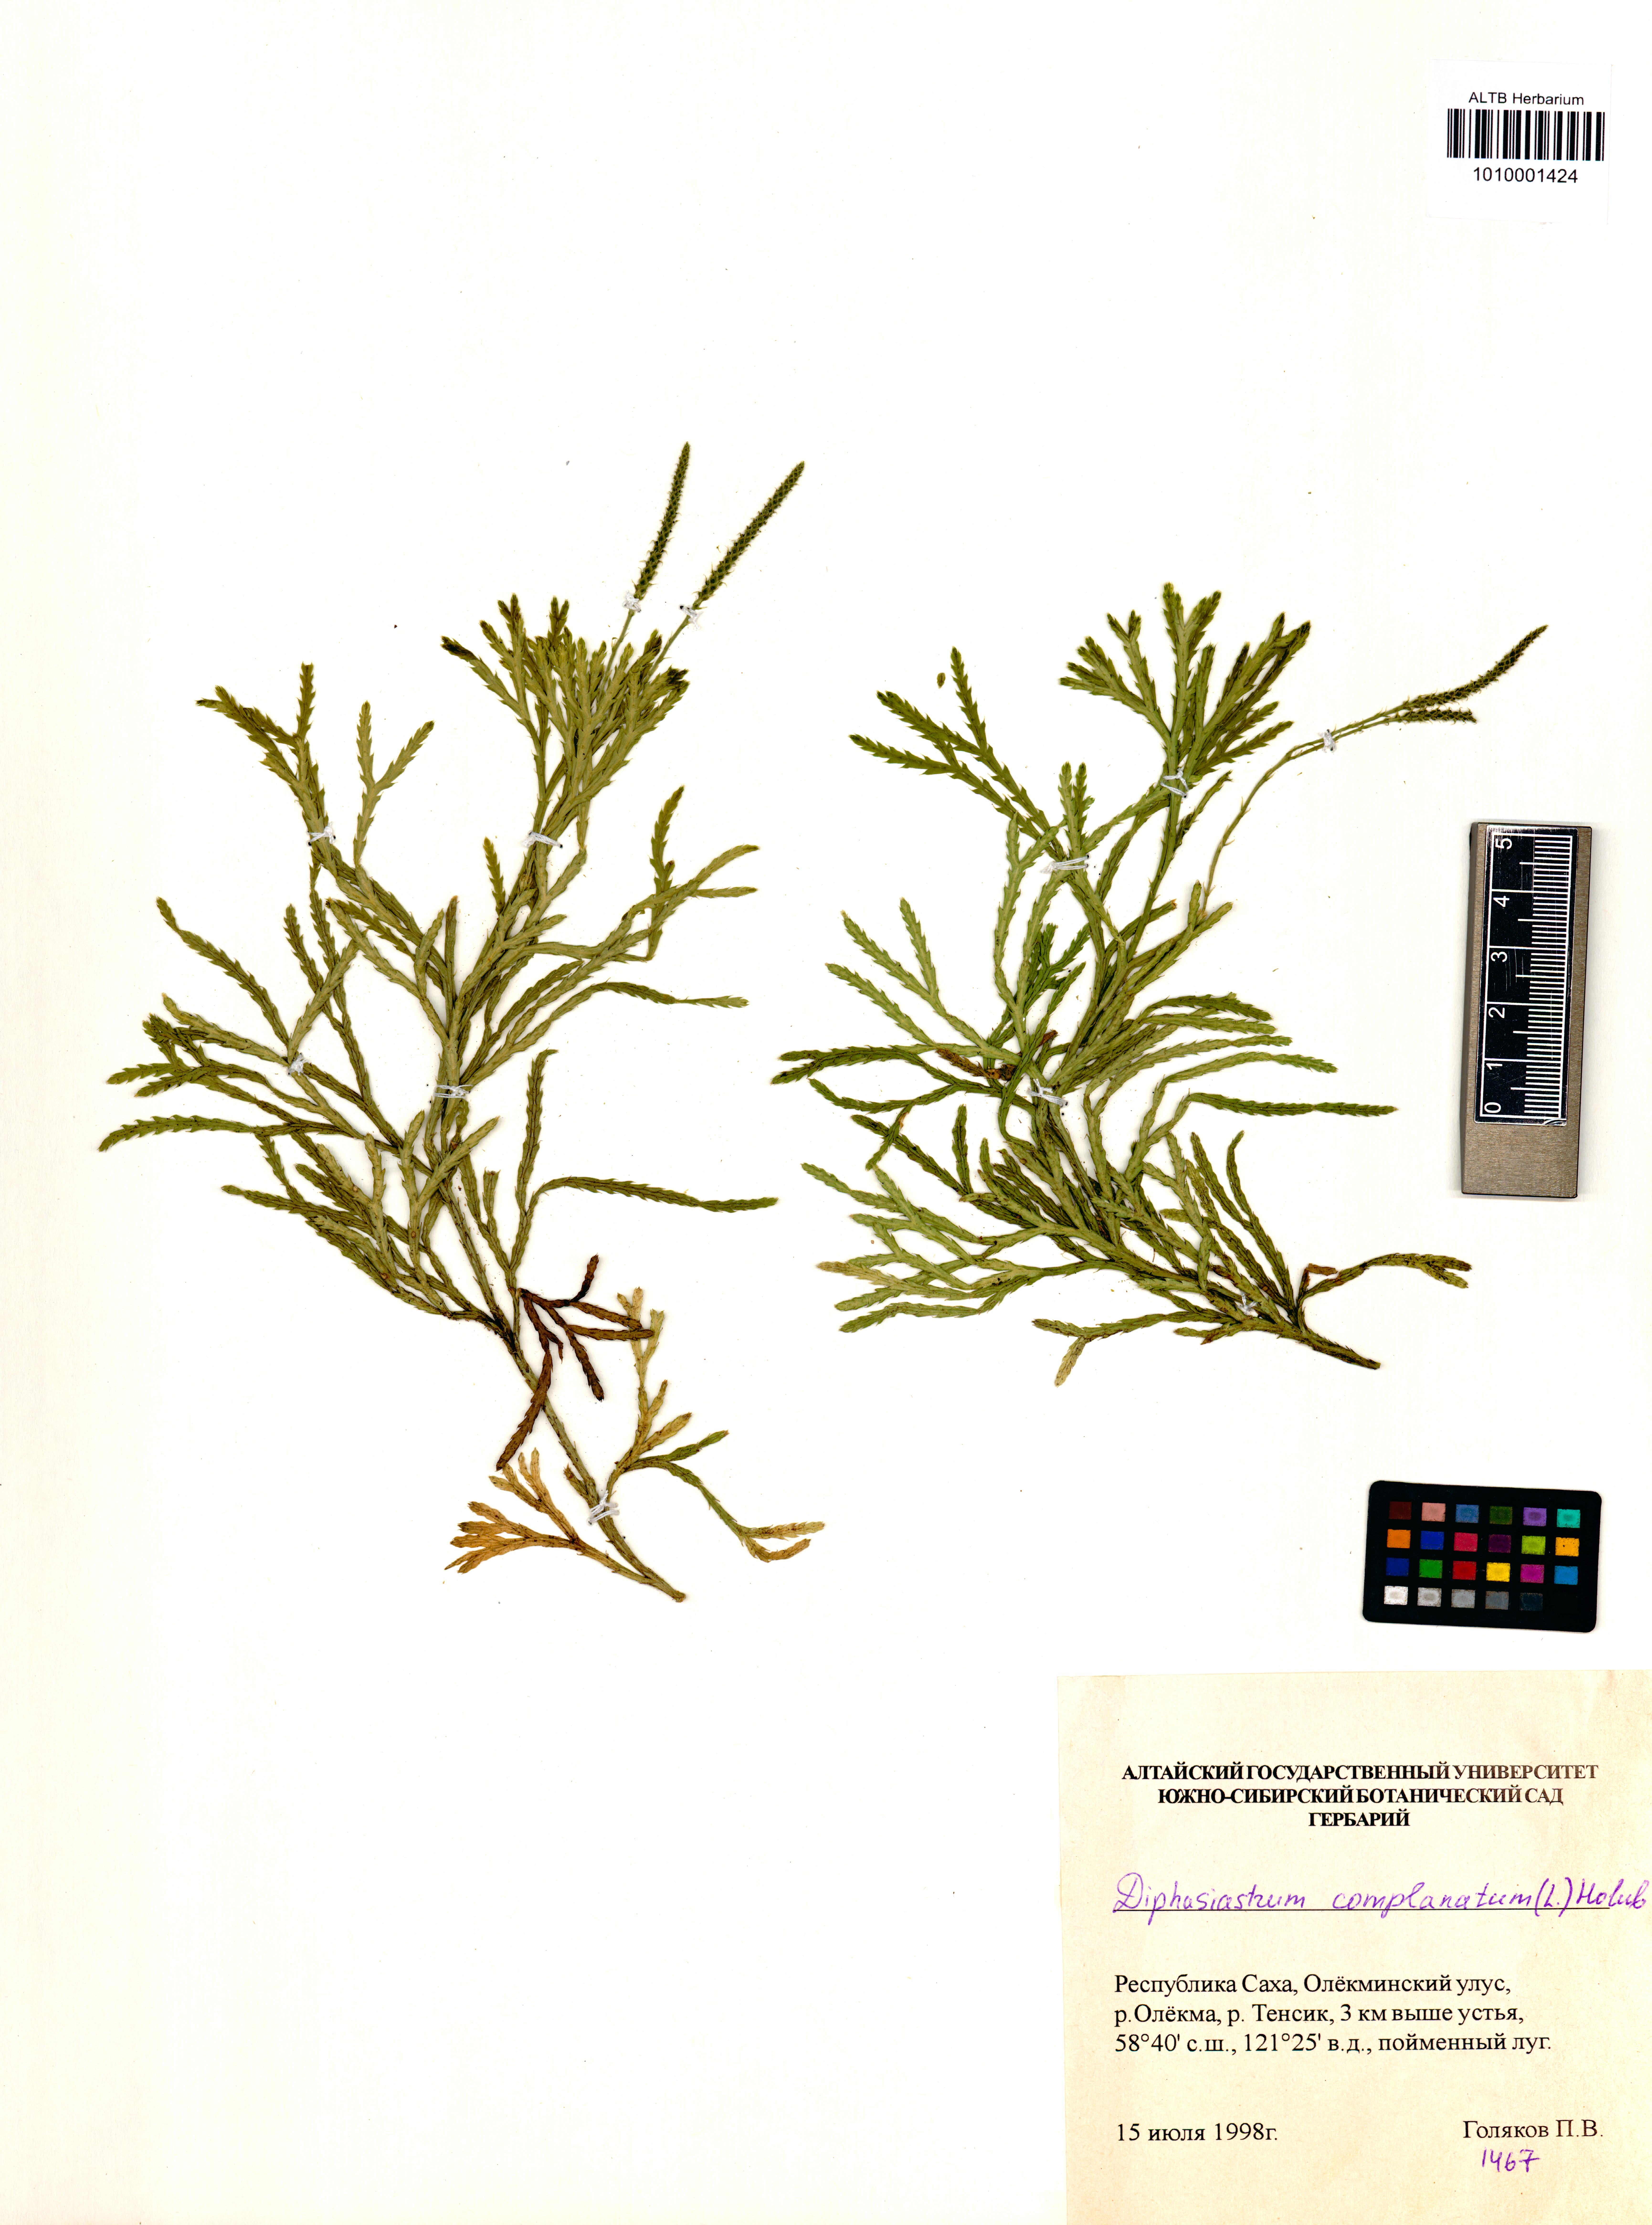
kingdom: Plantae
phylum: Tracheophyta
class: Lycopodiopsida
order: Lycopodiales
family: Lycopodiaceae
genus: Diphasiastrum
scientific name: Diphasiastrum complanatum
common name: Northern running-pine
